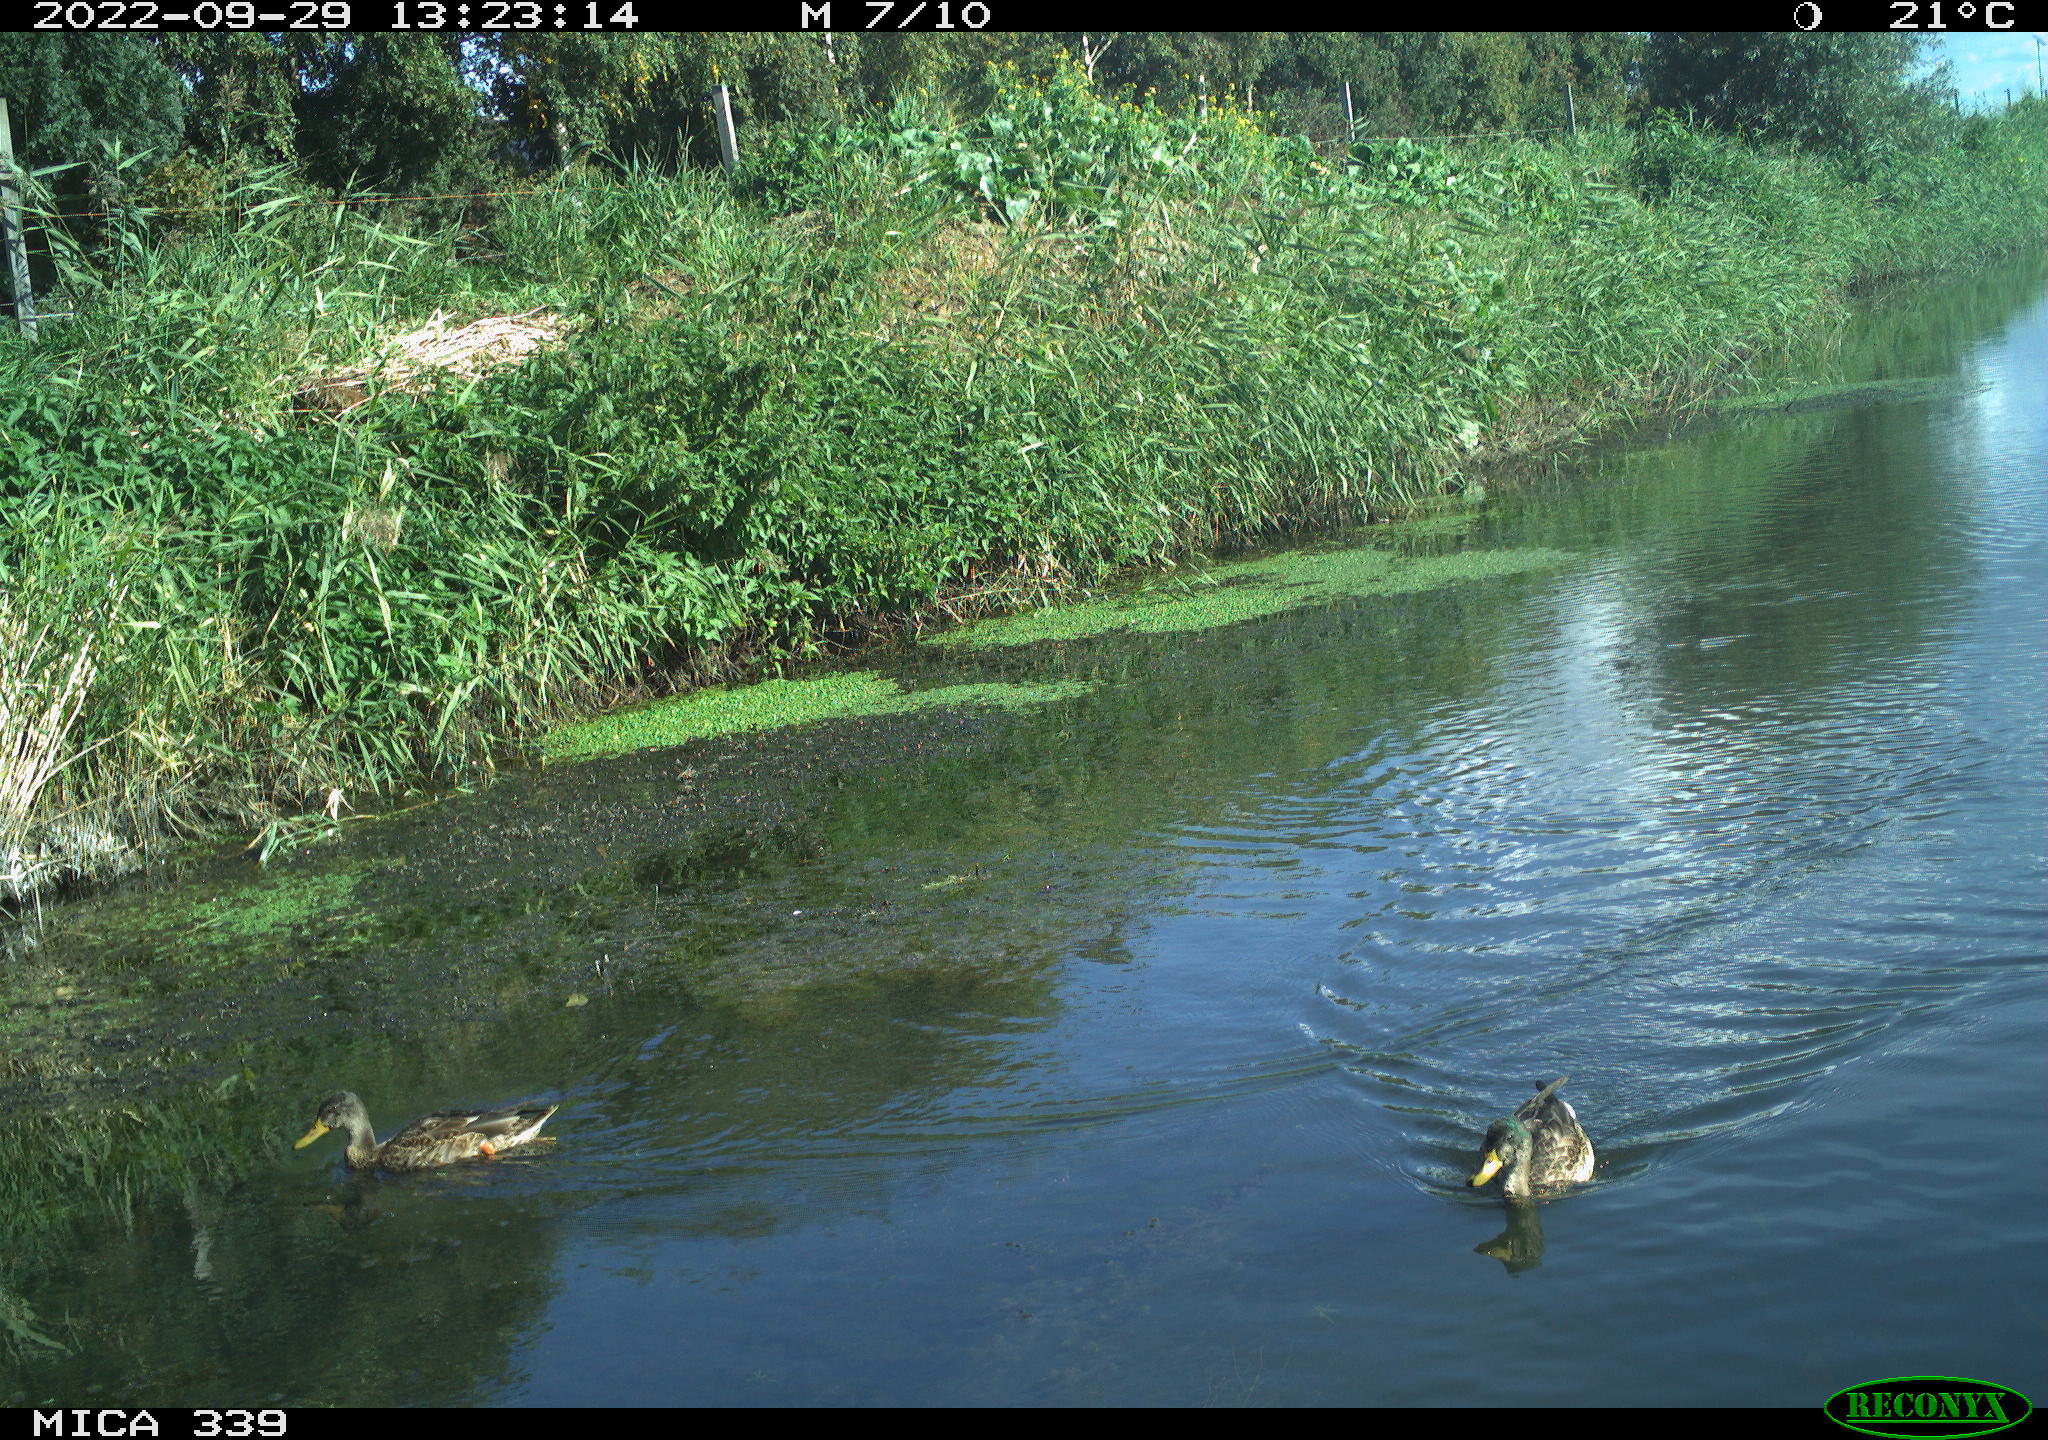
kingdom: Animalia
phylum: Chordata
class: Aves
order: Anseriformes
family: Anatidae
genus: Anas
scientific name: Anas platyrhynchos
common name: Mallard
